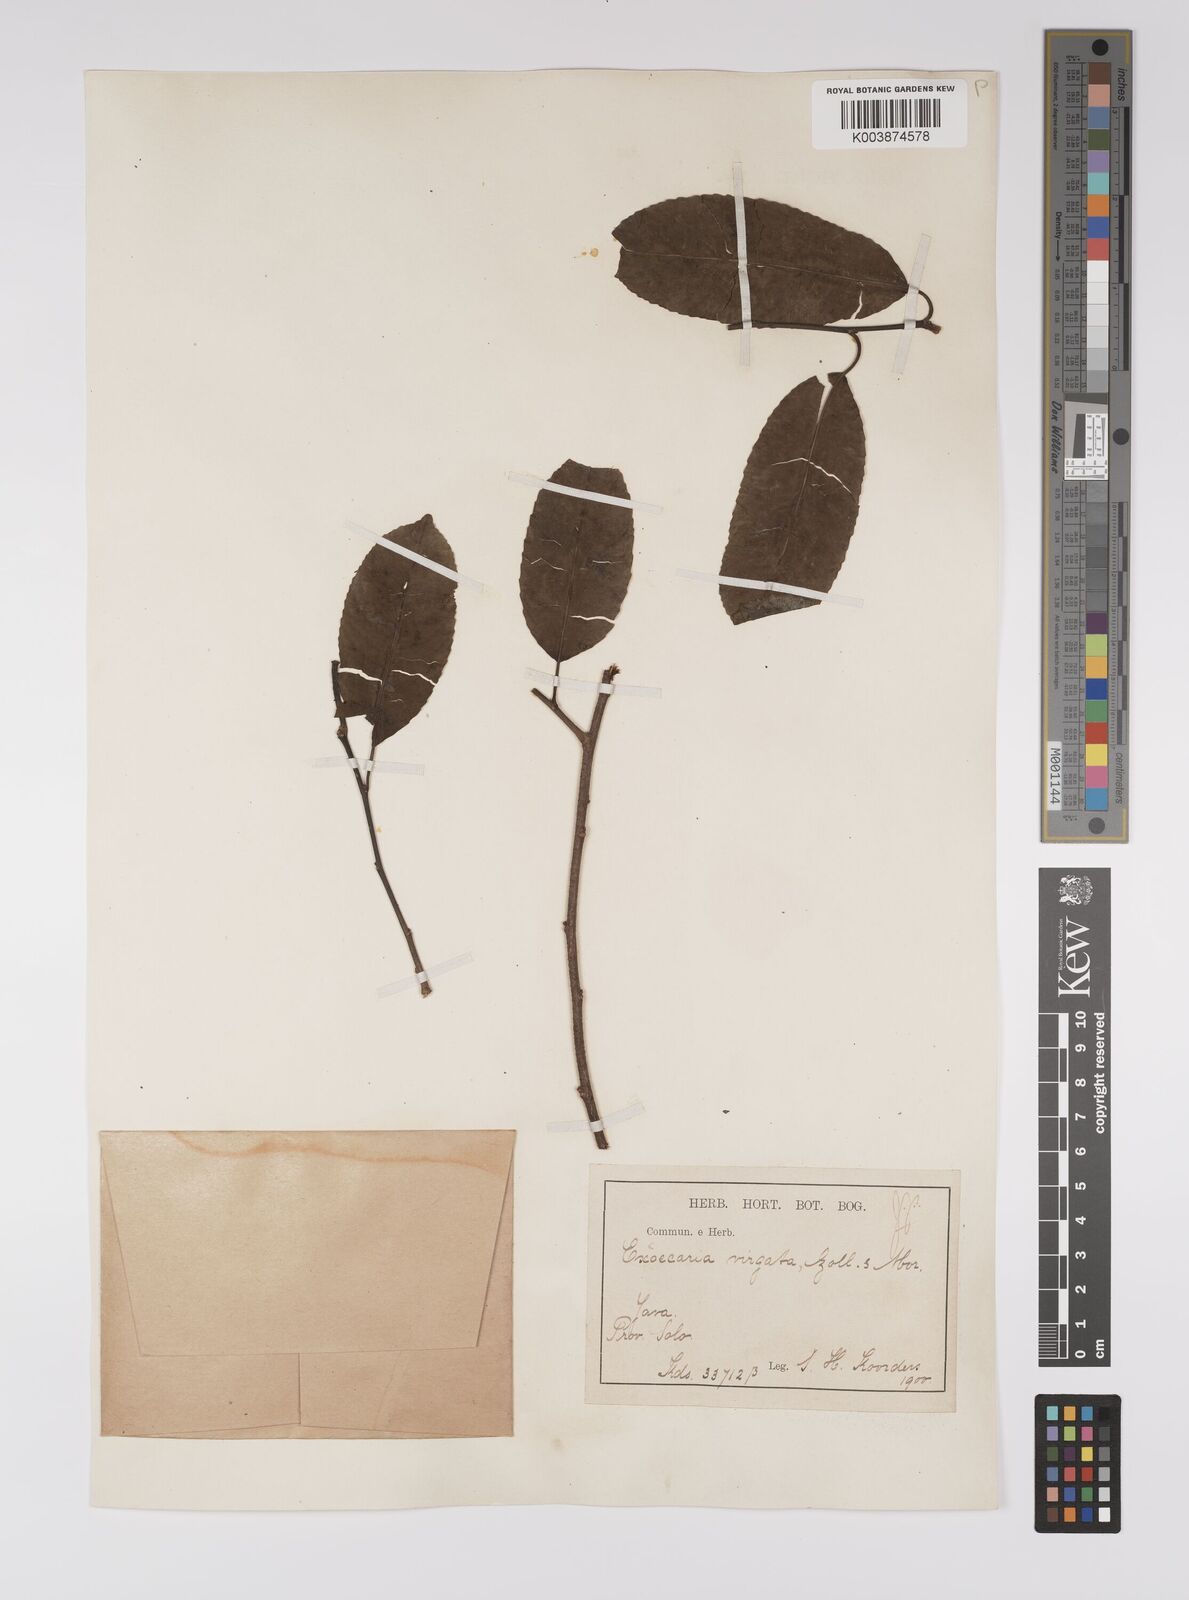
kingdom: Plantae
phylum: Tracheophyta
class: Magnoliopsida
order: Malpighiales
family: Euphorbiaceae
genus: Shirakiopsis
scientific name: Shirakiopsis virgata
